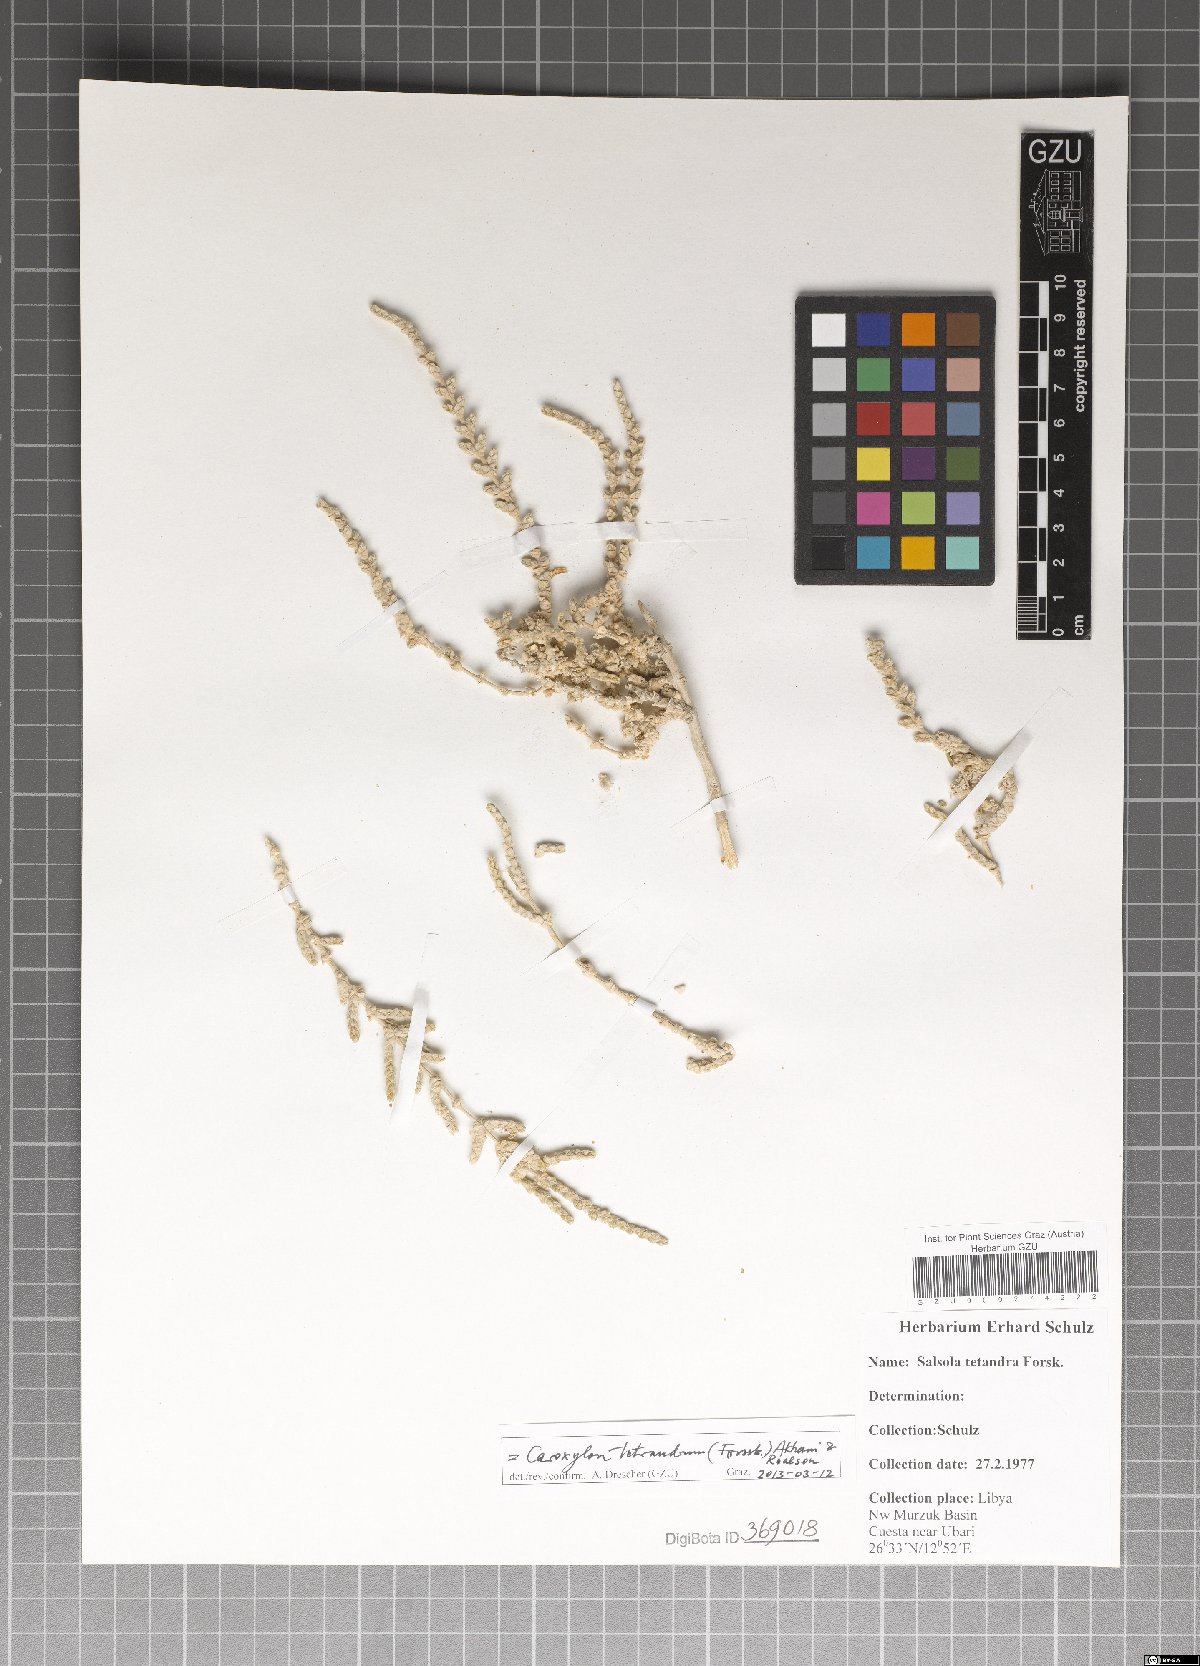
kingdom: Plantae
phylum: Tracheophyta
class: Magnoliopsida
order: Caryophyllales
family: Amaranthaceae
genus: Caroxylon
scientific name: Caroxylon tetrandrum
